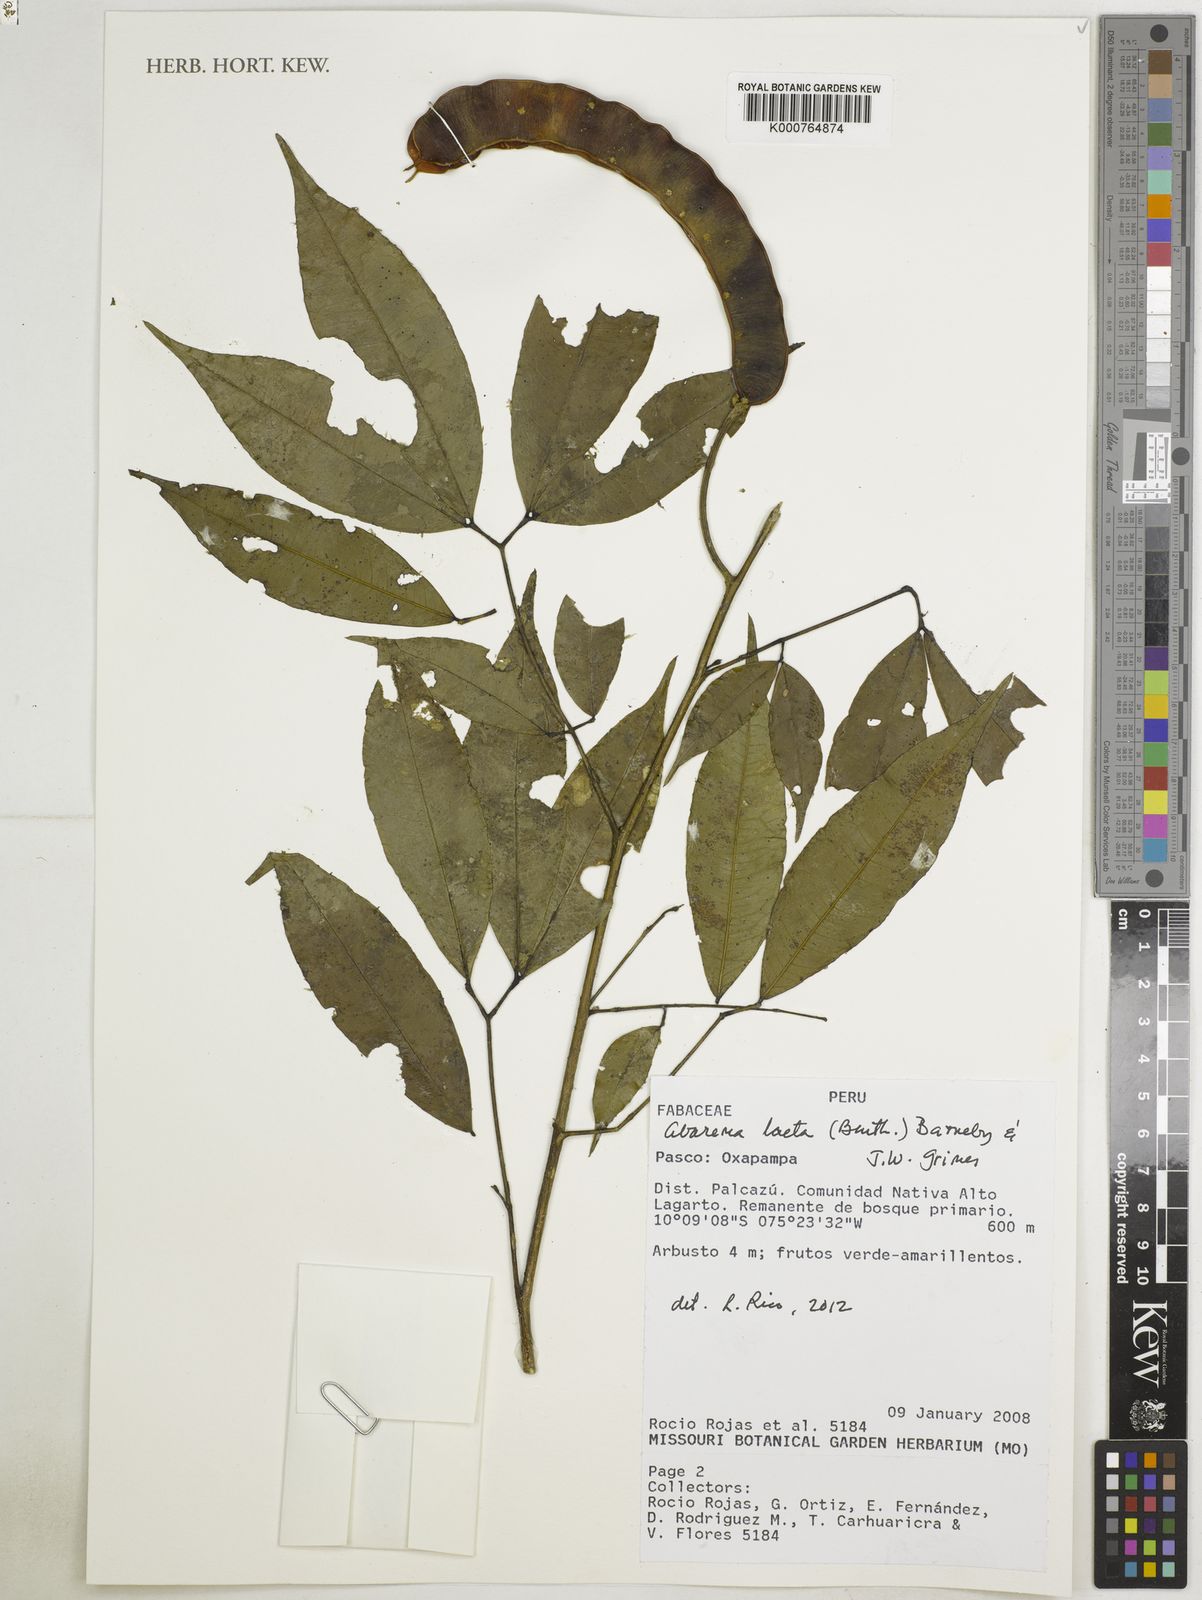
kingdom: Plantae
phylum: Tracheophyta
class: Magnoliopsida
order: Fabales
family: Fabaceae
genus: Jupunba
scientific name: Jupunba laeta
